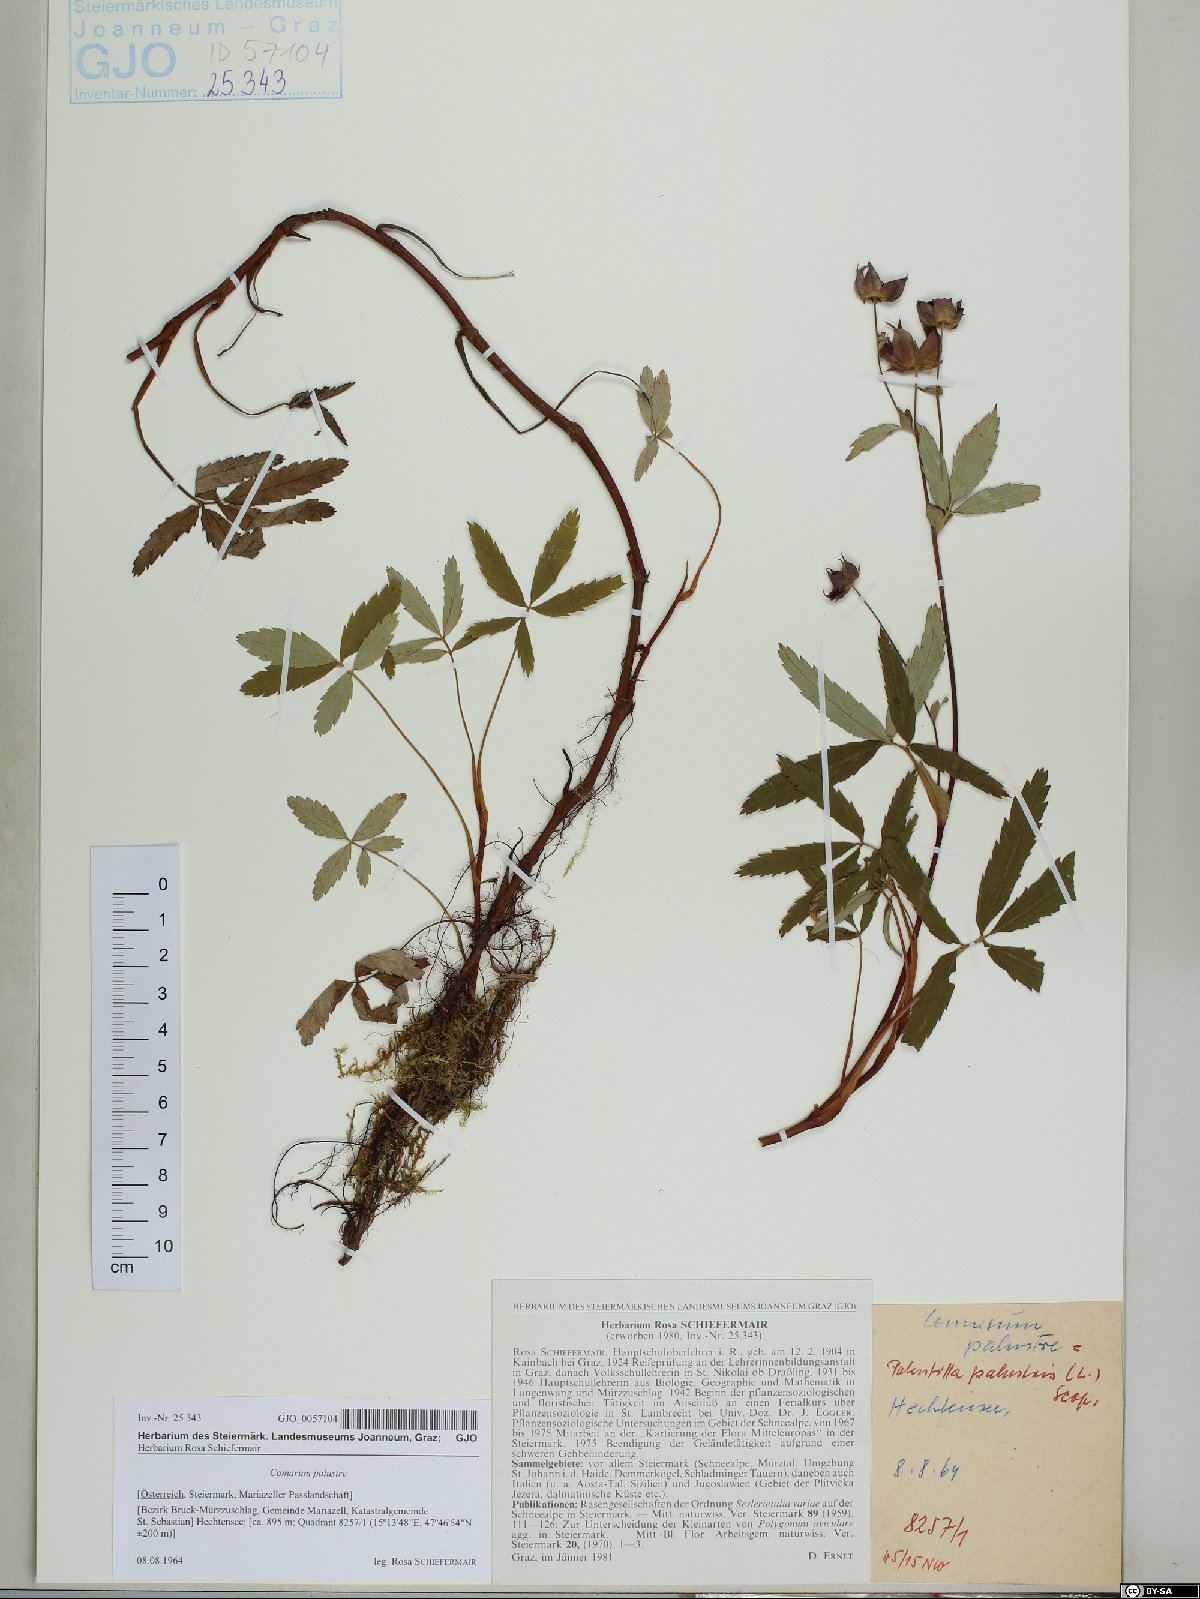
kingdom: Plantae
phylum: Tracheophyta
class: Magnoliopsida
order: Rosales
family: Rosaceae
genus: Comarum
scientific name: Comarum palustre
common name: Marsh cinquefoil
